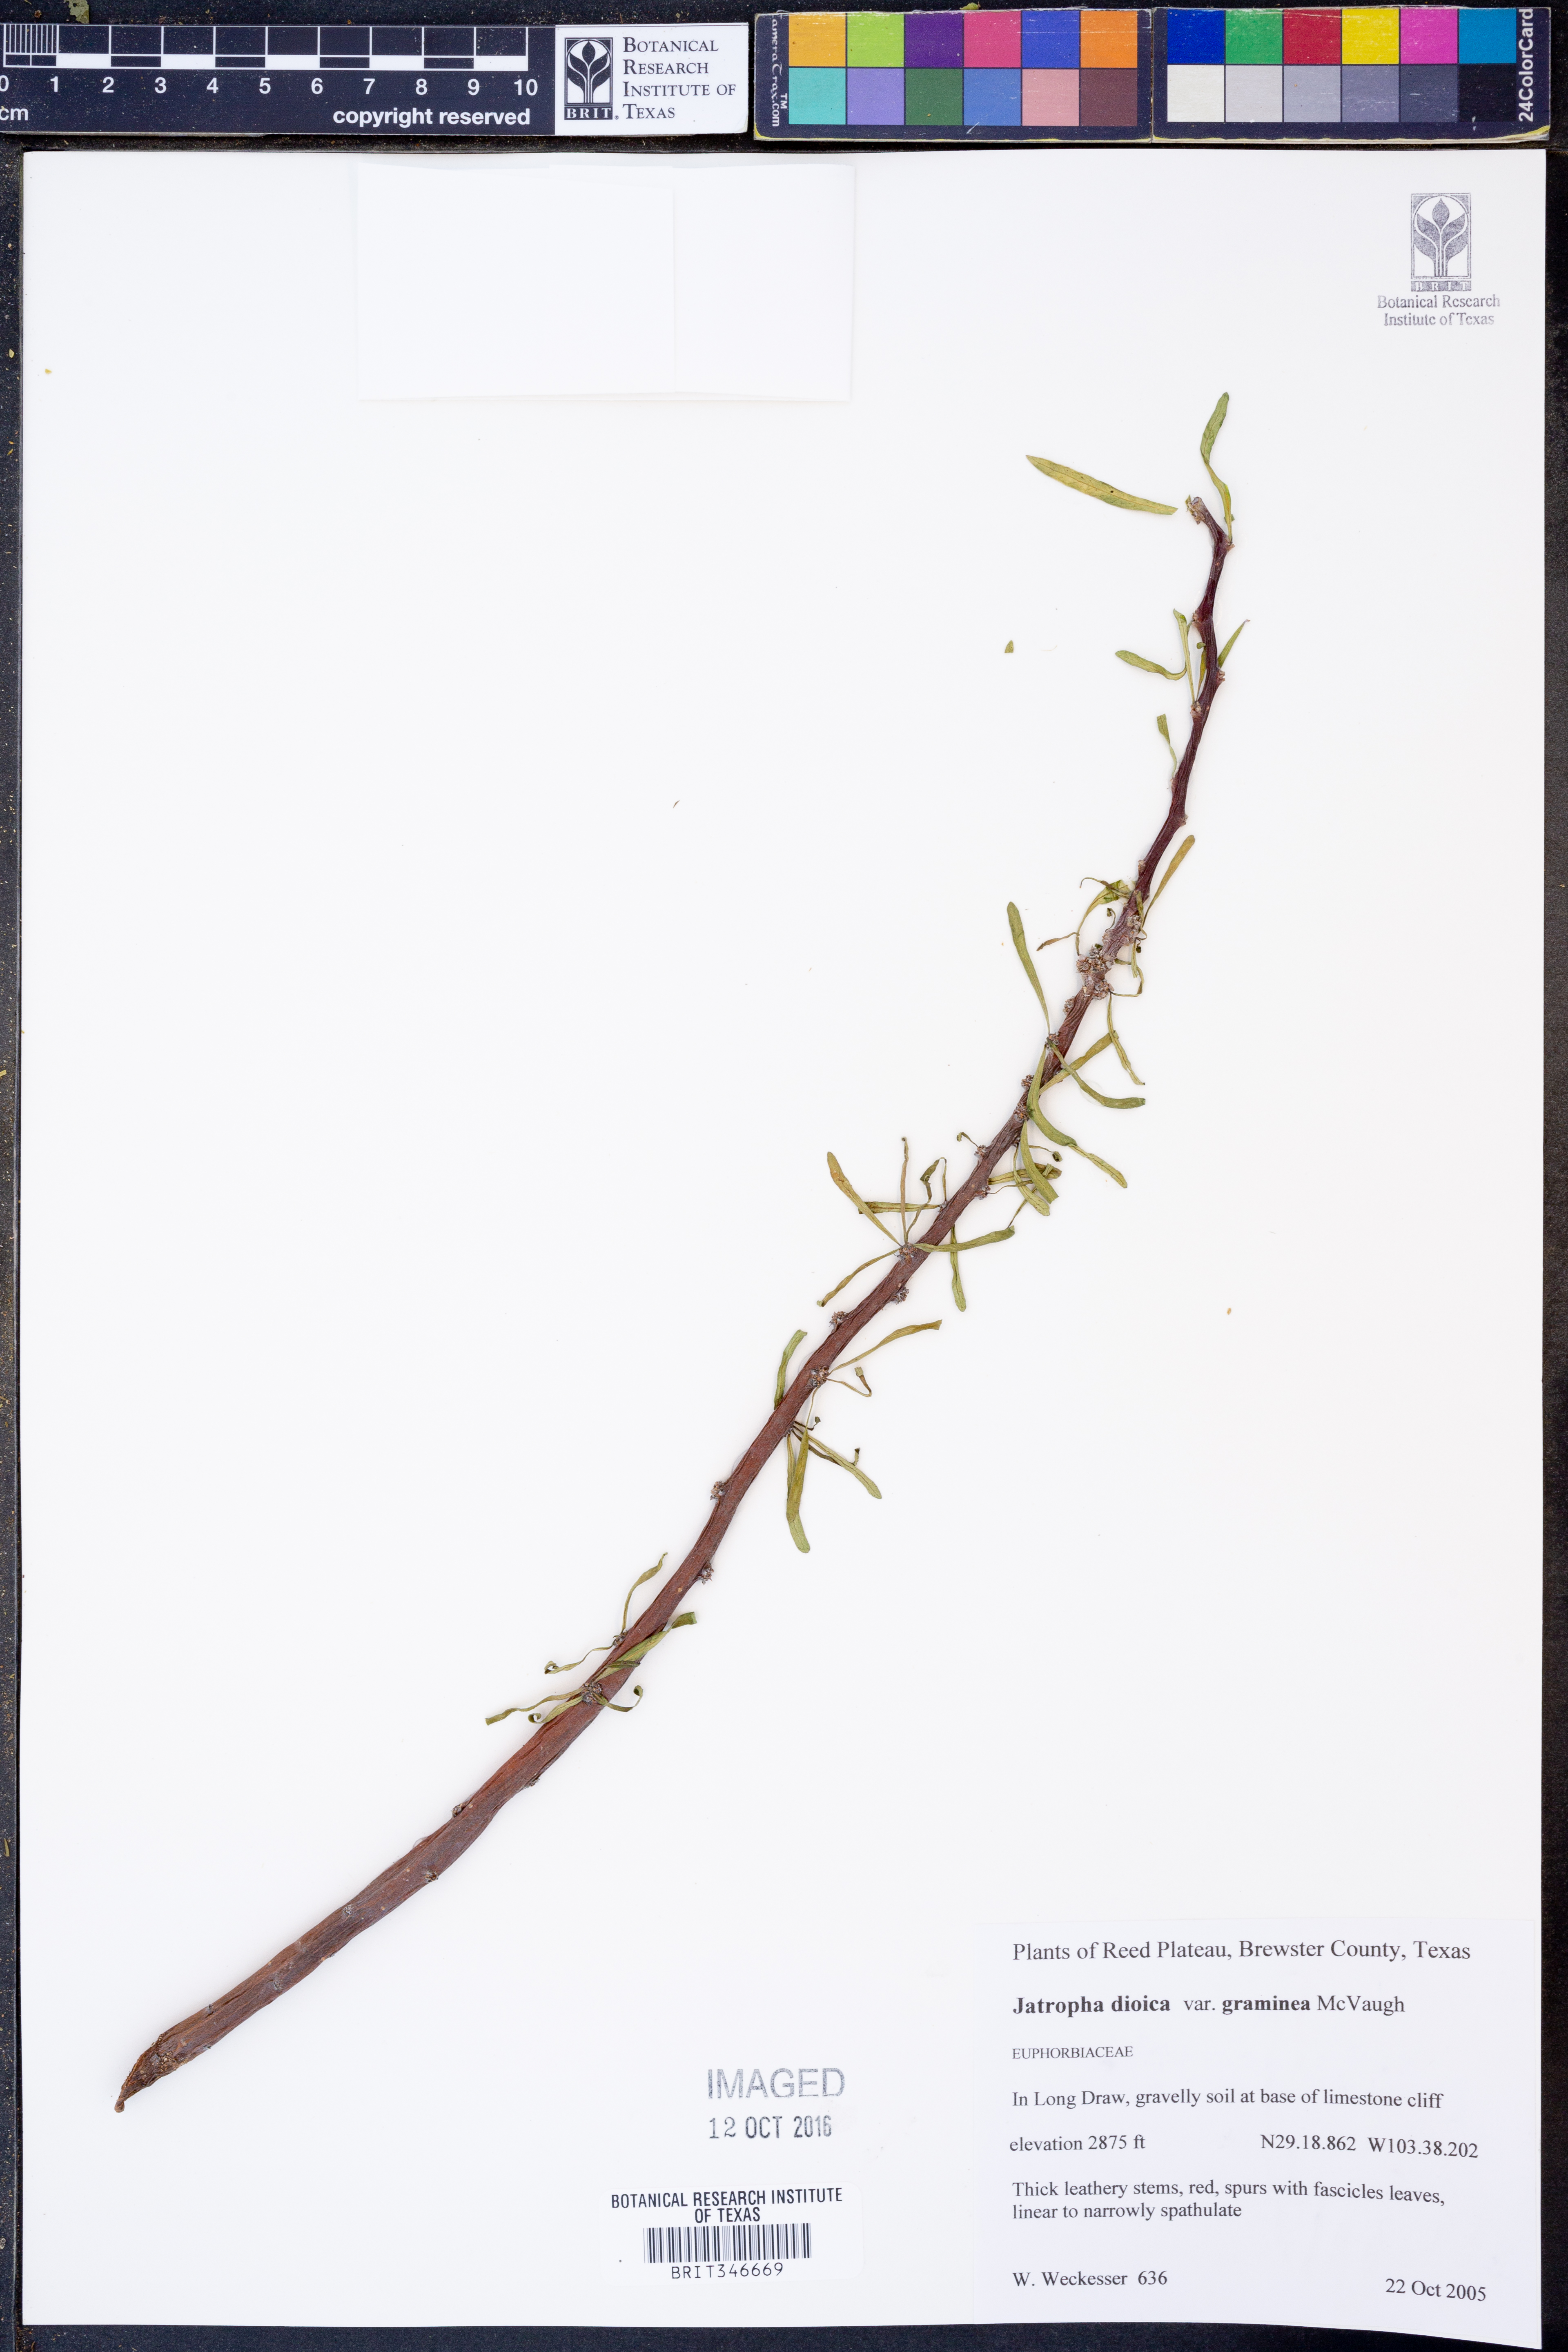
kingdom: Plantae
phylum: Tracheophyta
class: Magnoliopsida
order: Malpighiales
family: Euphorbiaceae
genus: Jatropha
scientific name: Jatropha dioica
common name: Leatherstem
